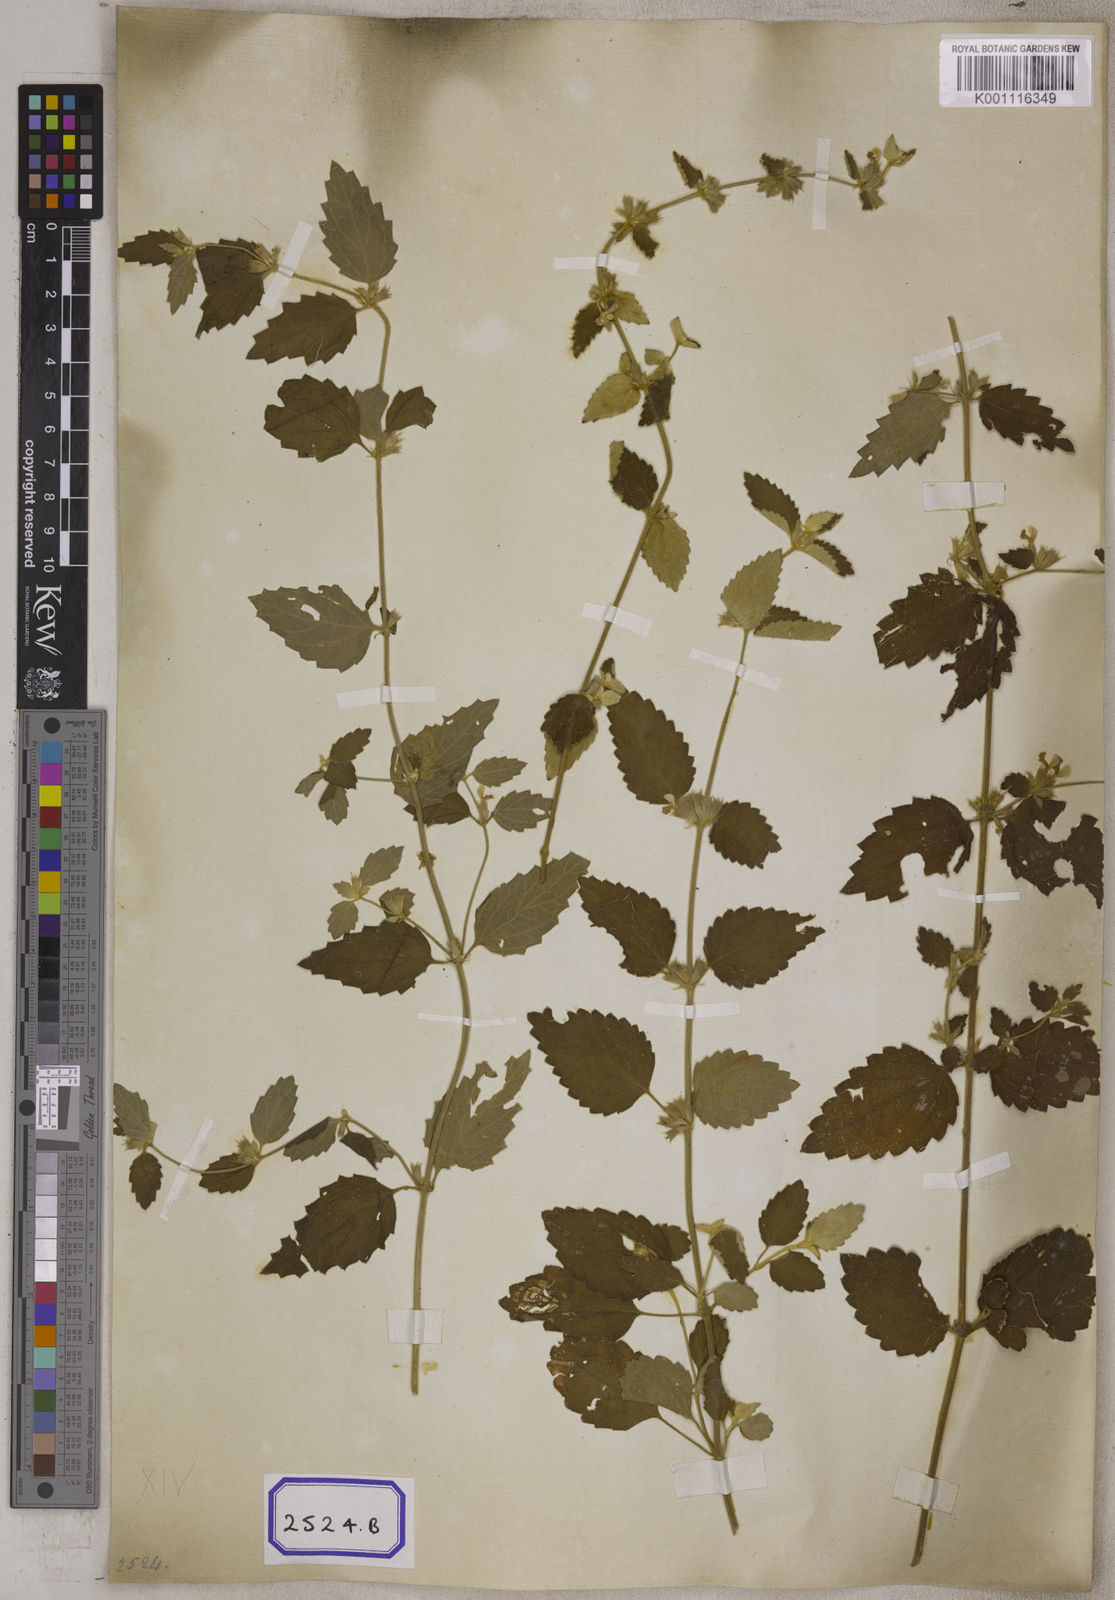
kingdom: Plantae
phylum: Tracheophyta
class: Magnoliopsida
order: Lamiales
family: Lamiaceae
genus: Leucas
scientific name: Leucas marrubioides
